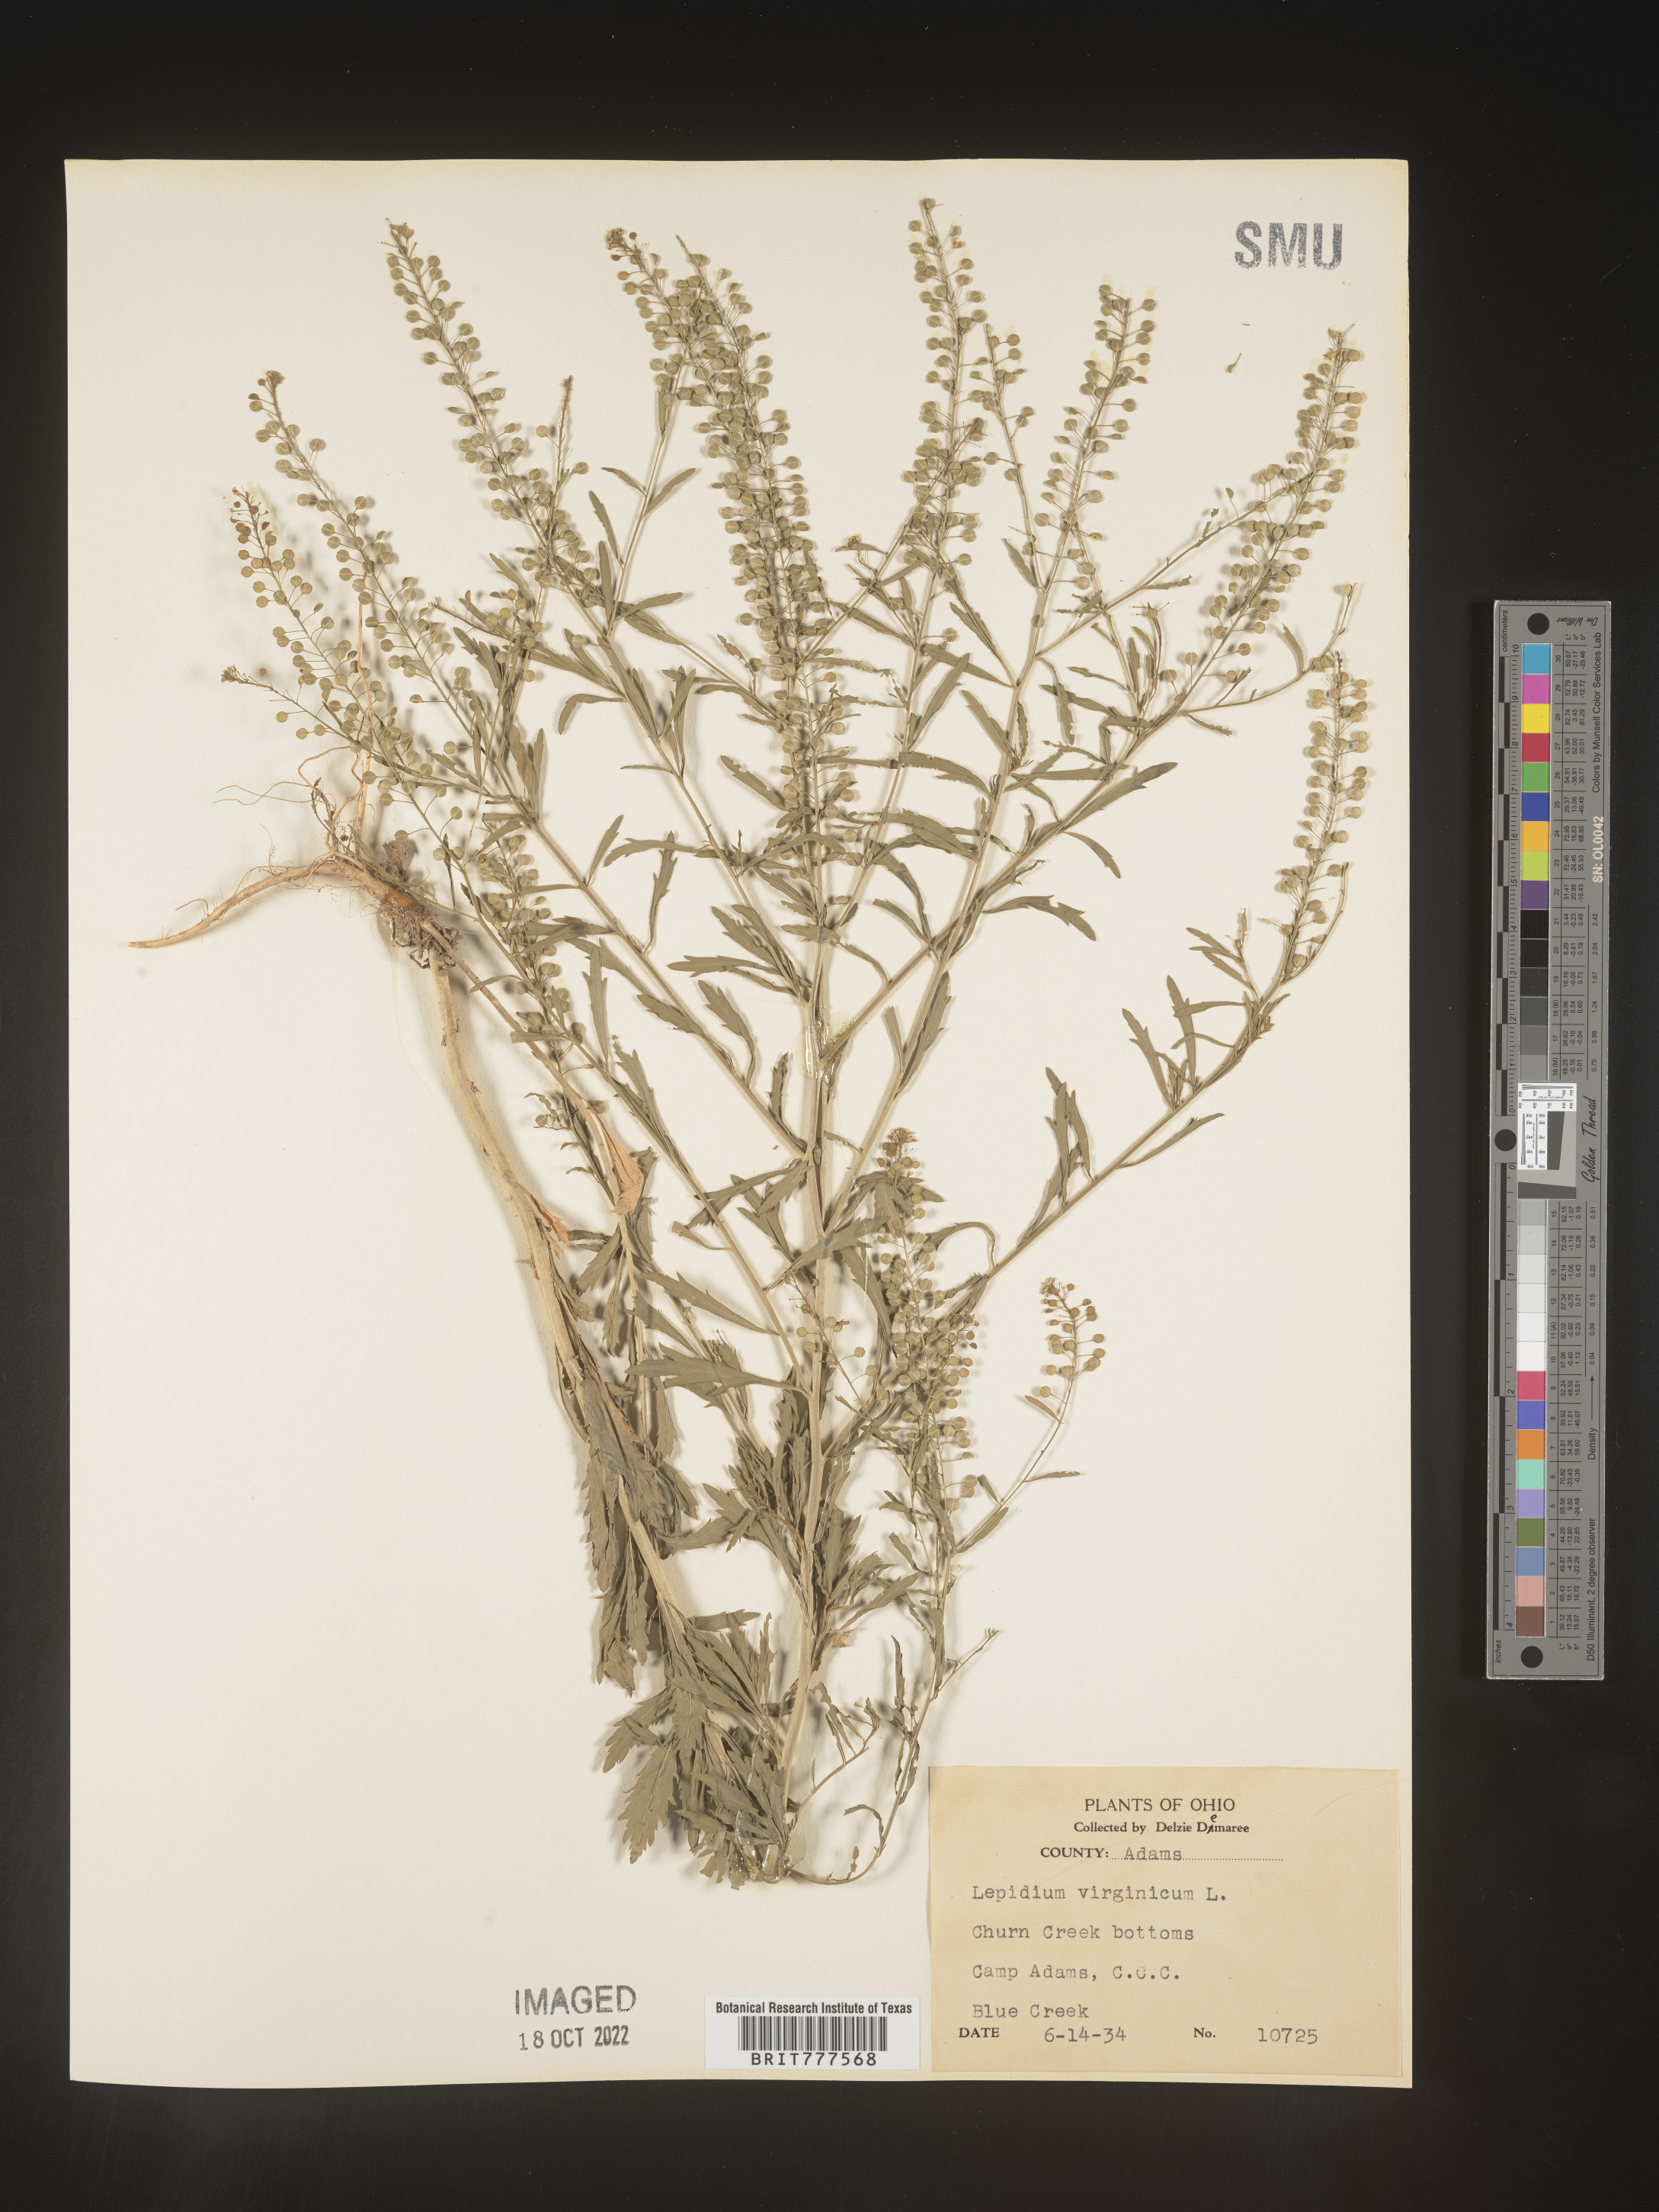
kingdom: Plantae
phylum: Tracheophyta
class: Magnoliopsida
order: Brassicales
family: Brassicaceae
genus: Lepidium
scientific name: Lepidium virginicum
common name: Least pepperwort
